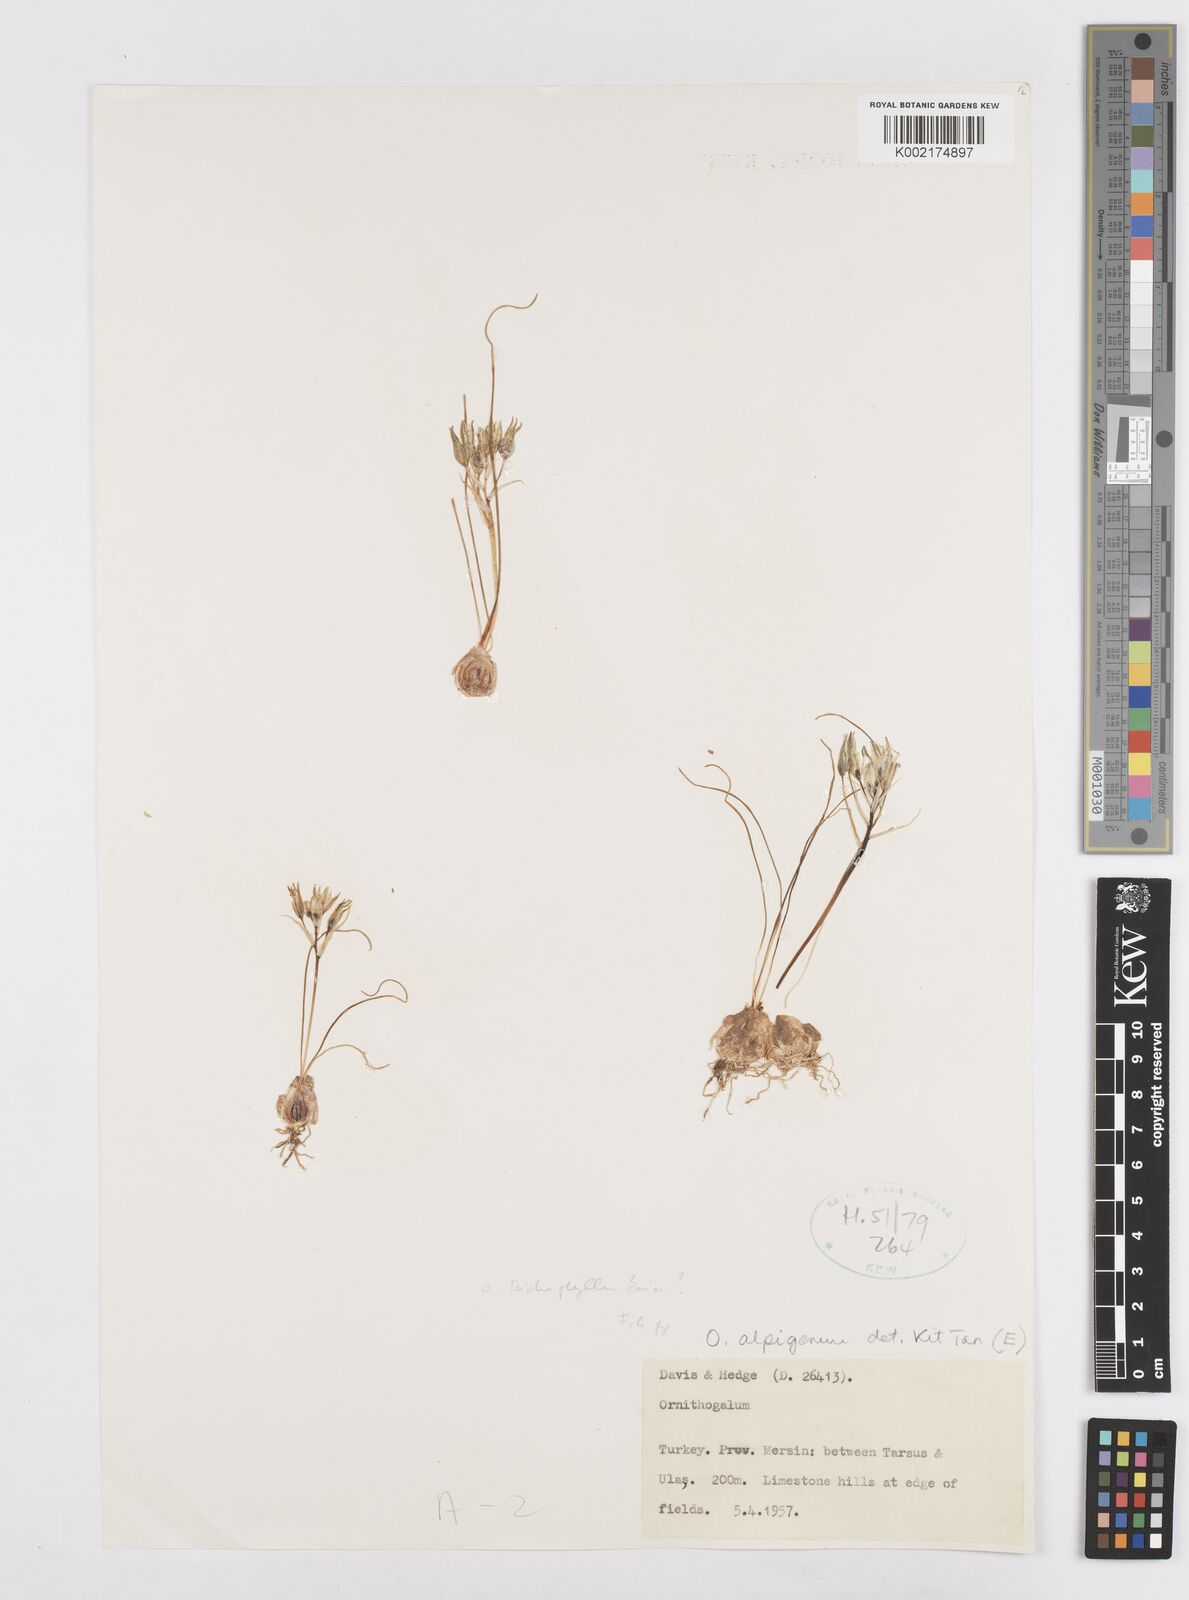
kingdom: Plantae
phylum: Tracheophyta
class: Liliopsida
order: Asparagales
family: Asparagaceae
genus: Ornithogalum
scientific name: Ornithogalum alpigenum
